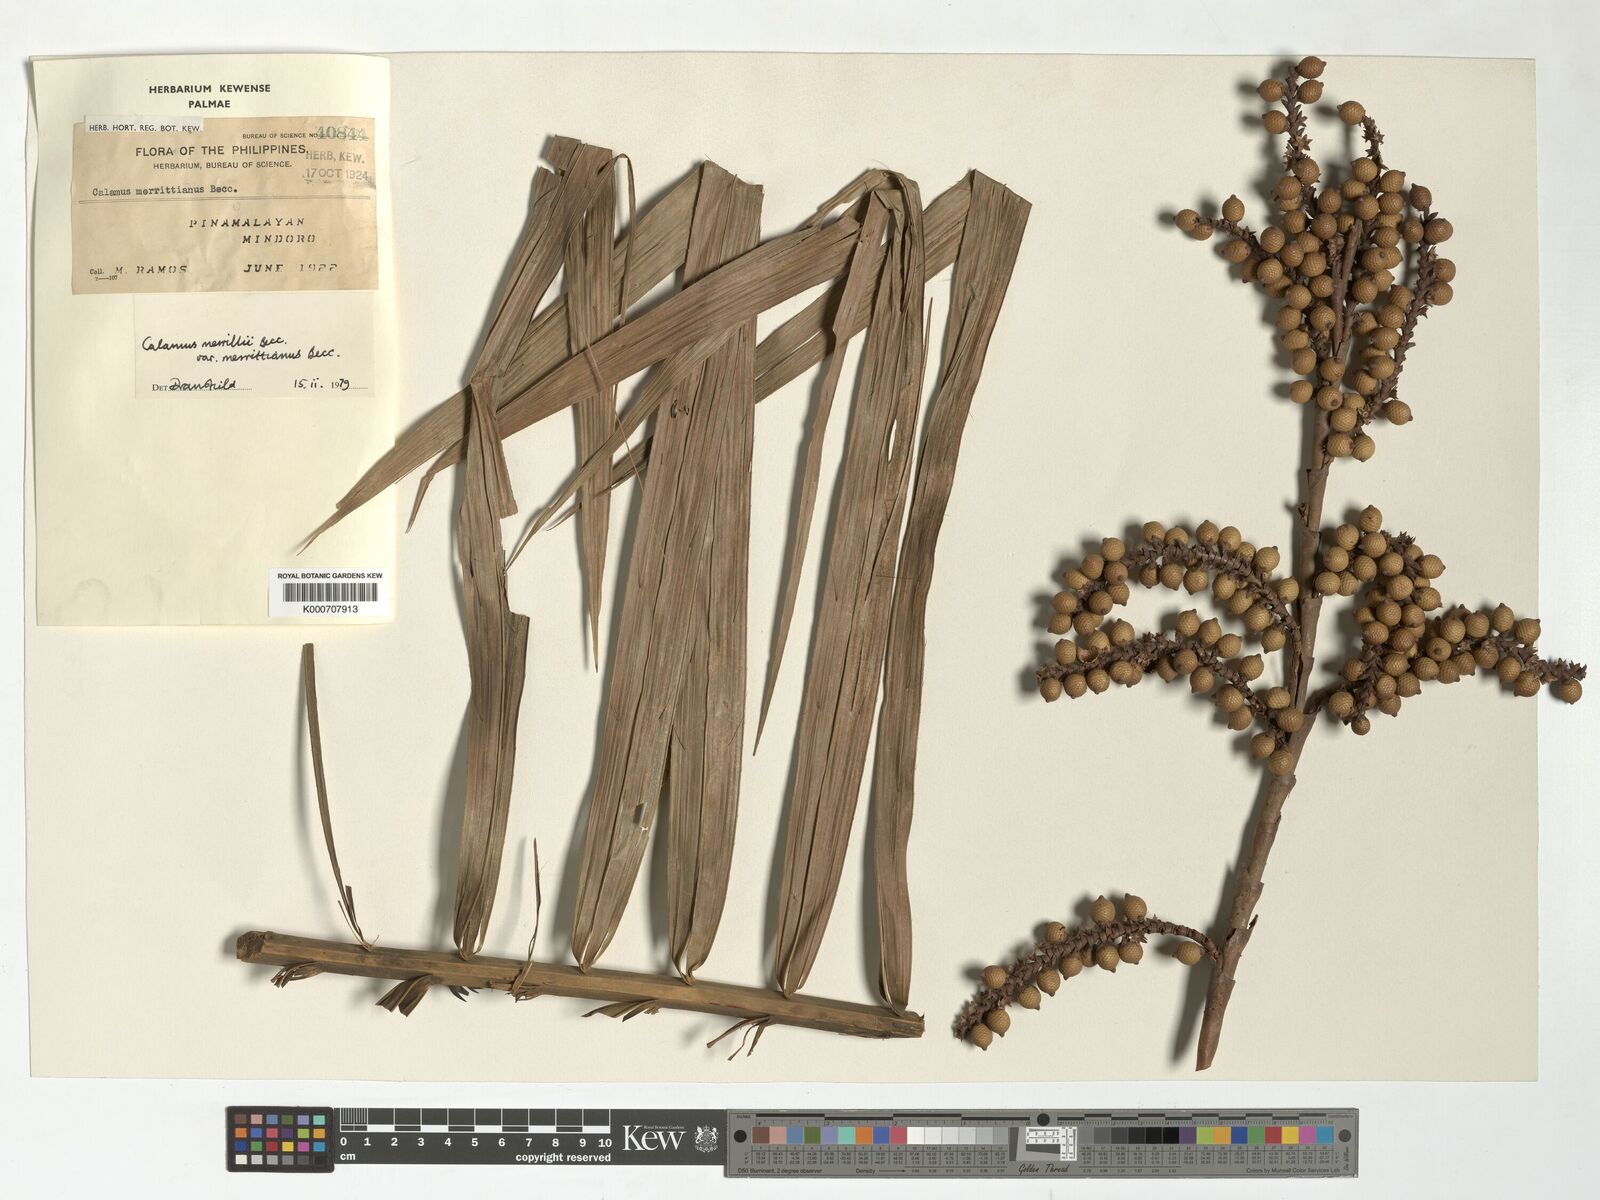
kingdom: Plantae
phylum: Tracheophyta
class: Liliopsida
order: Arecales
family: Arecaceae
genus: Calamus
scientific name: Calamus zollingeri
